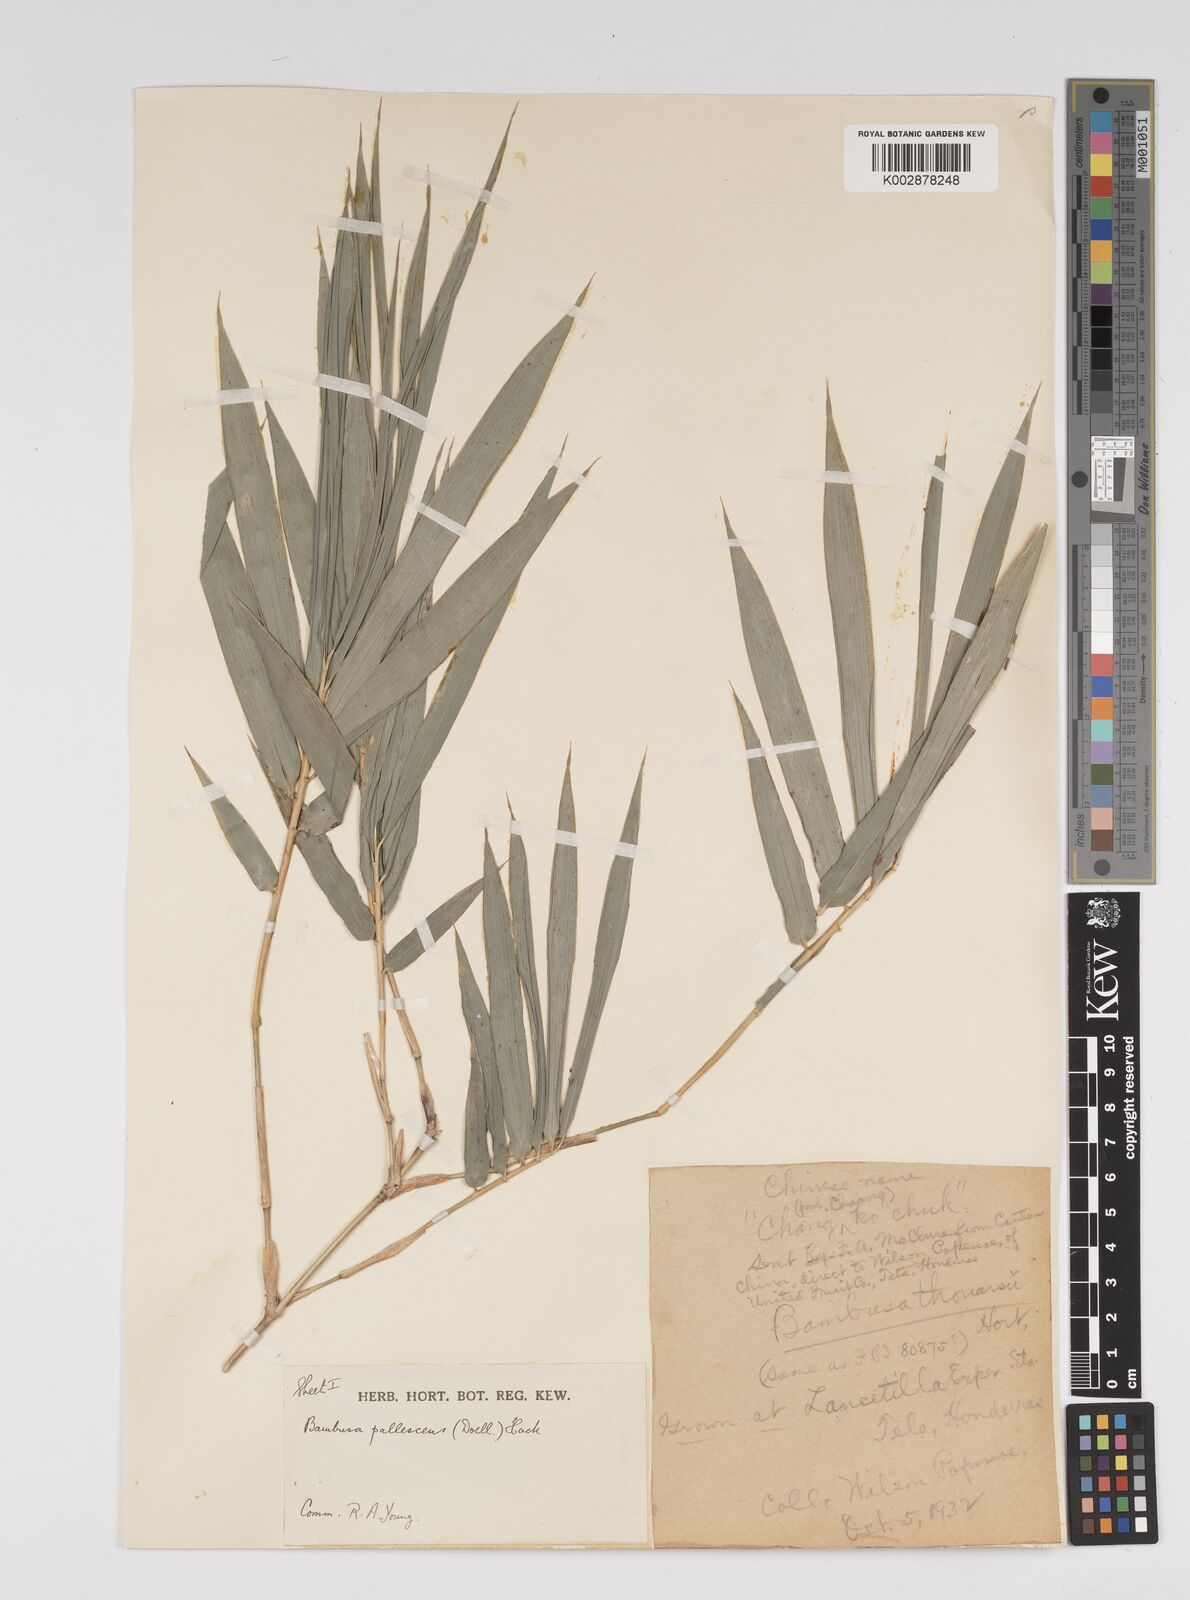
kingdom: Plantae
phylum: Tracheophyta
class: Liliopsida
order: Poales
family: Poaceae
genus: Bambusa
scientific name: Bambusa tuldoides
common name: Verdant bamboo
